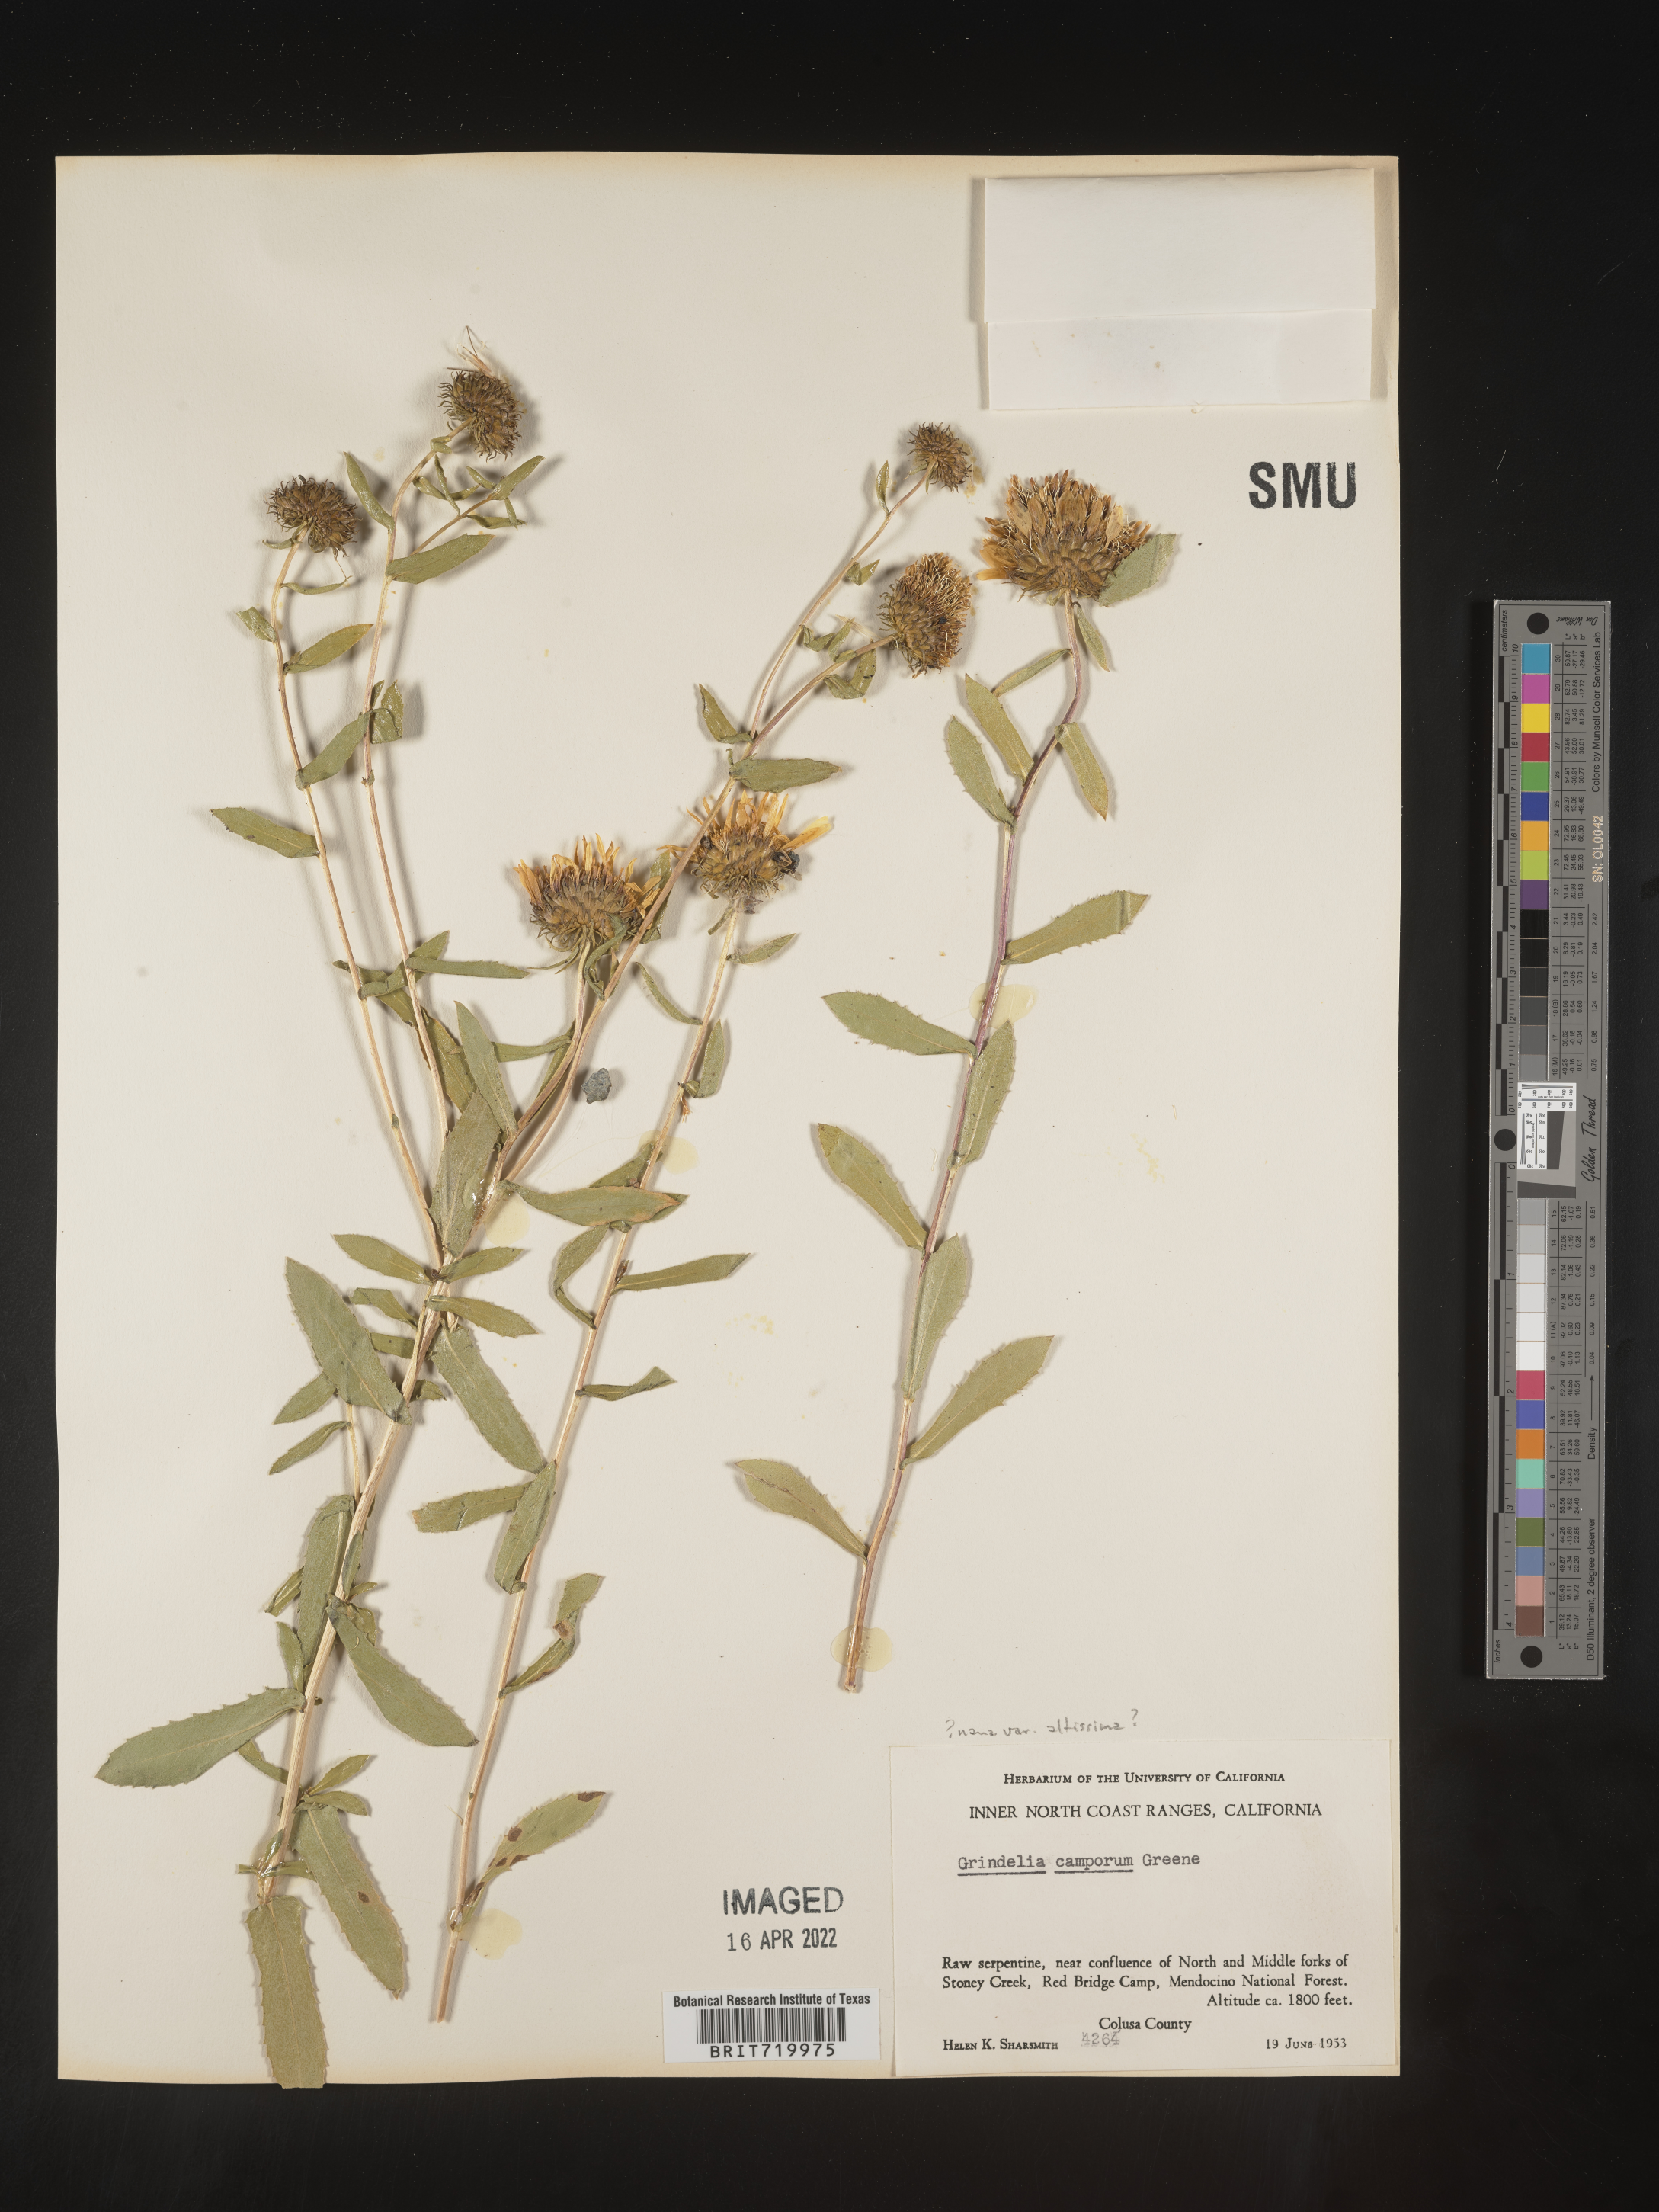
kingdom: Plantae
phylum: Tracheophyta
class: Magnoliopsida
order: Asterales
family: Asteraceae
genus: Grindelia
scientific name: Grindelia hirsutula
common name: Hairy gumweed
